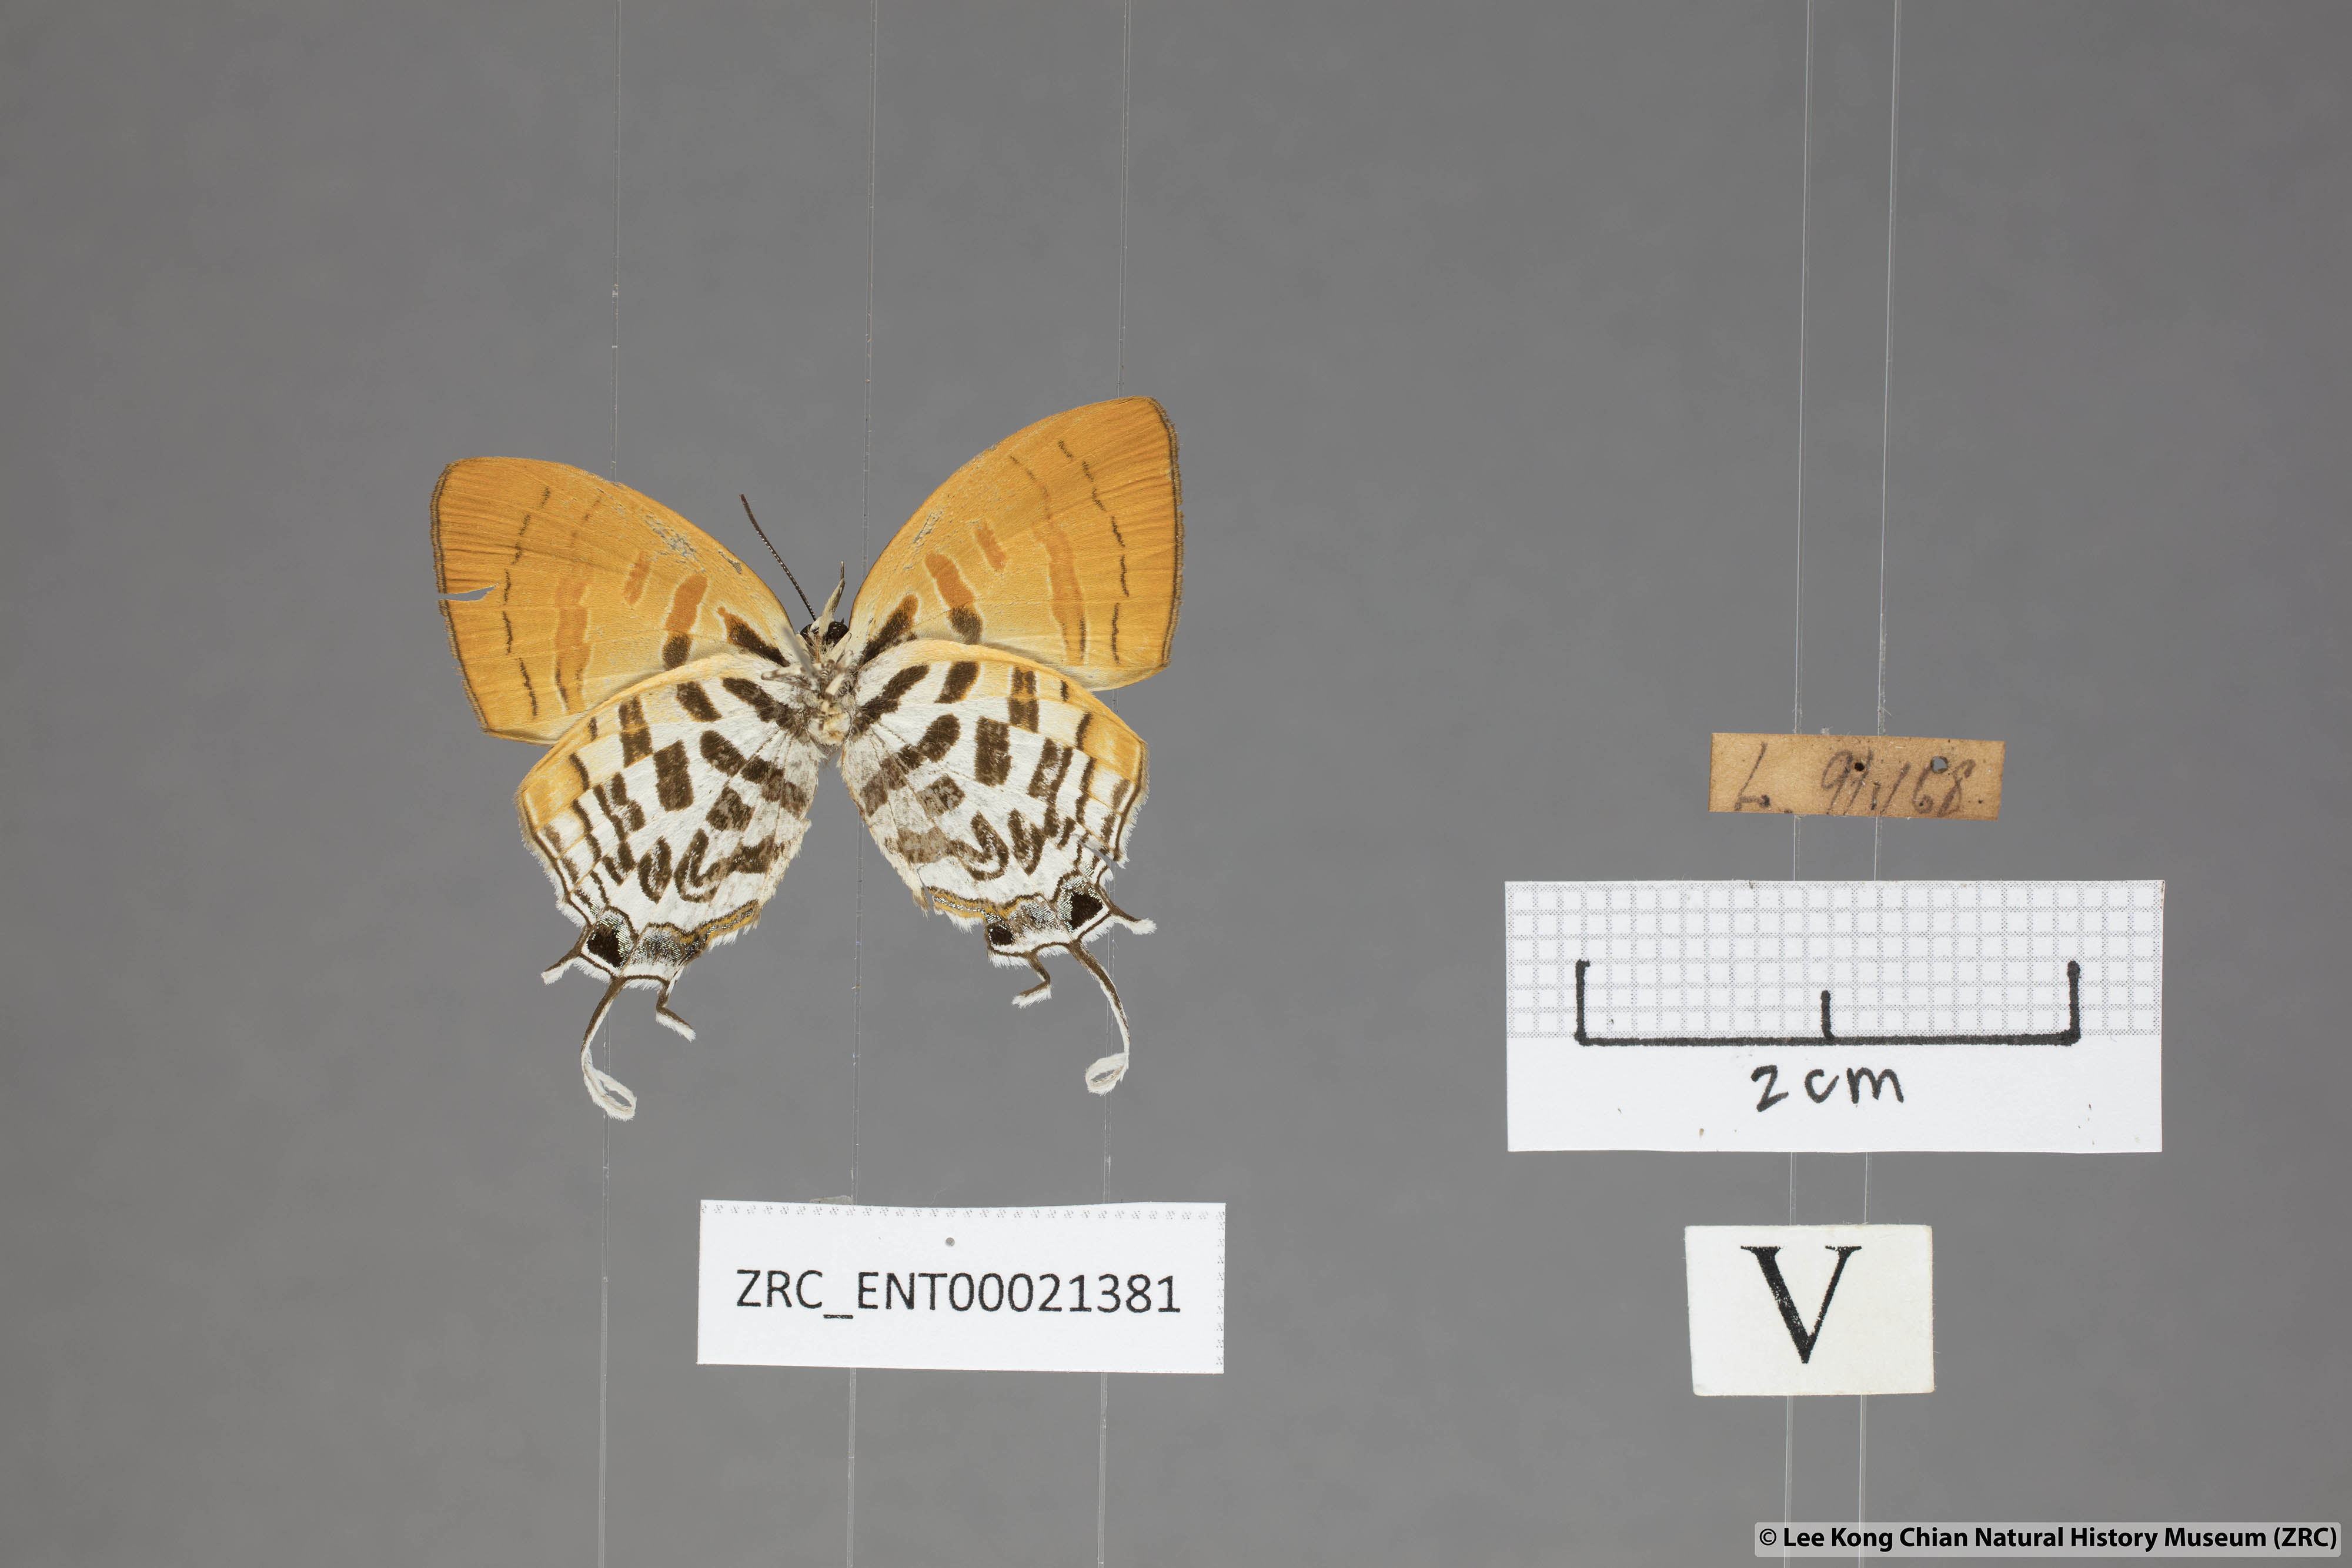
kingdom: Animalia
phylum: Arthropoda
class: Insecta
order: Lepidoptera
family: Lycaenidae
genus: Drupadia
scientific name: Drupadia ravindra
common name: Common posy
